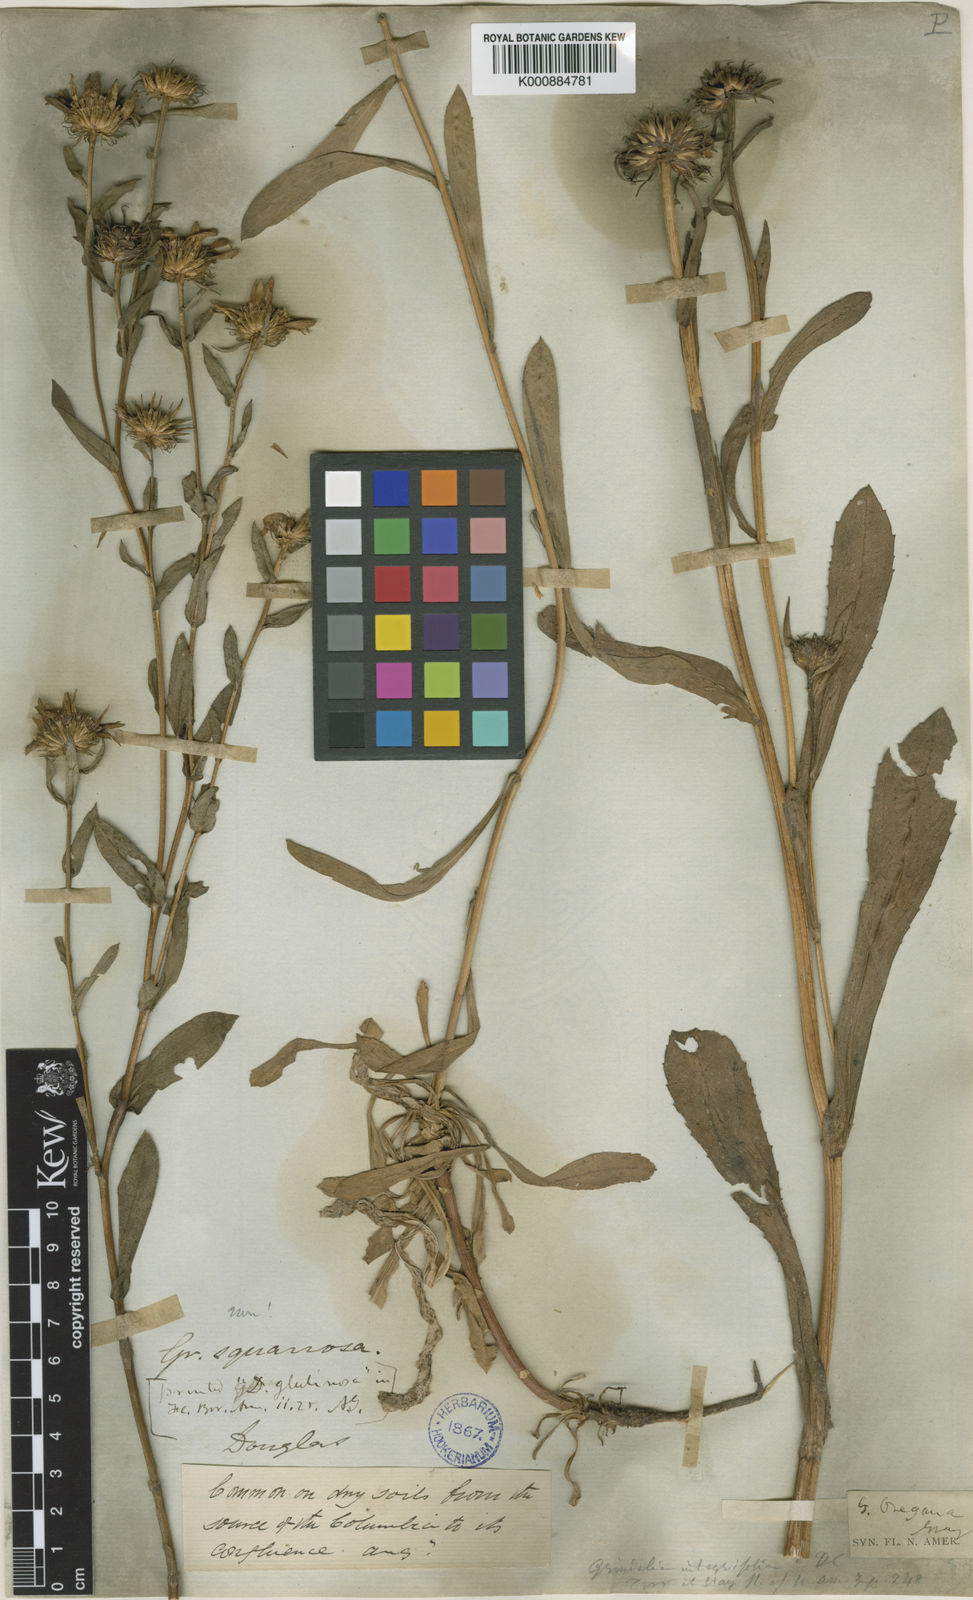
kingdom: Plantae
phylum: Tracheophyta
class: Magnoliopsida
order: Asterales
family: Asteraceae
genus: Grindelia
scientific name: Grindelia
